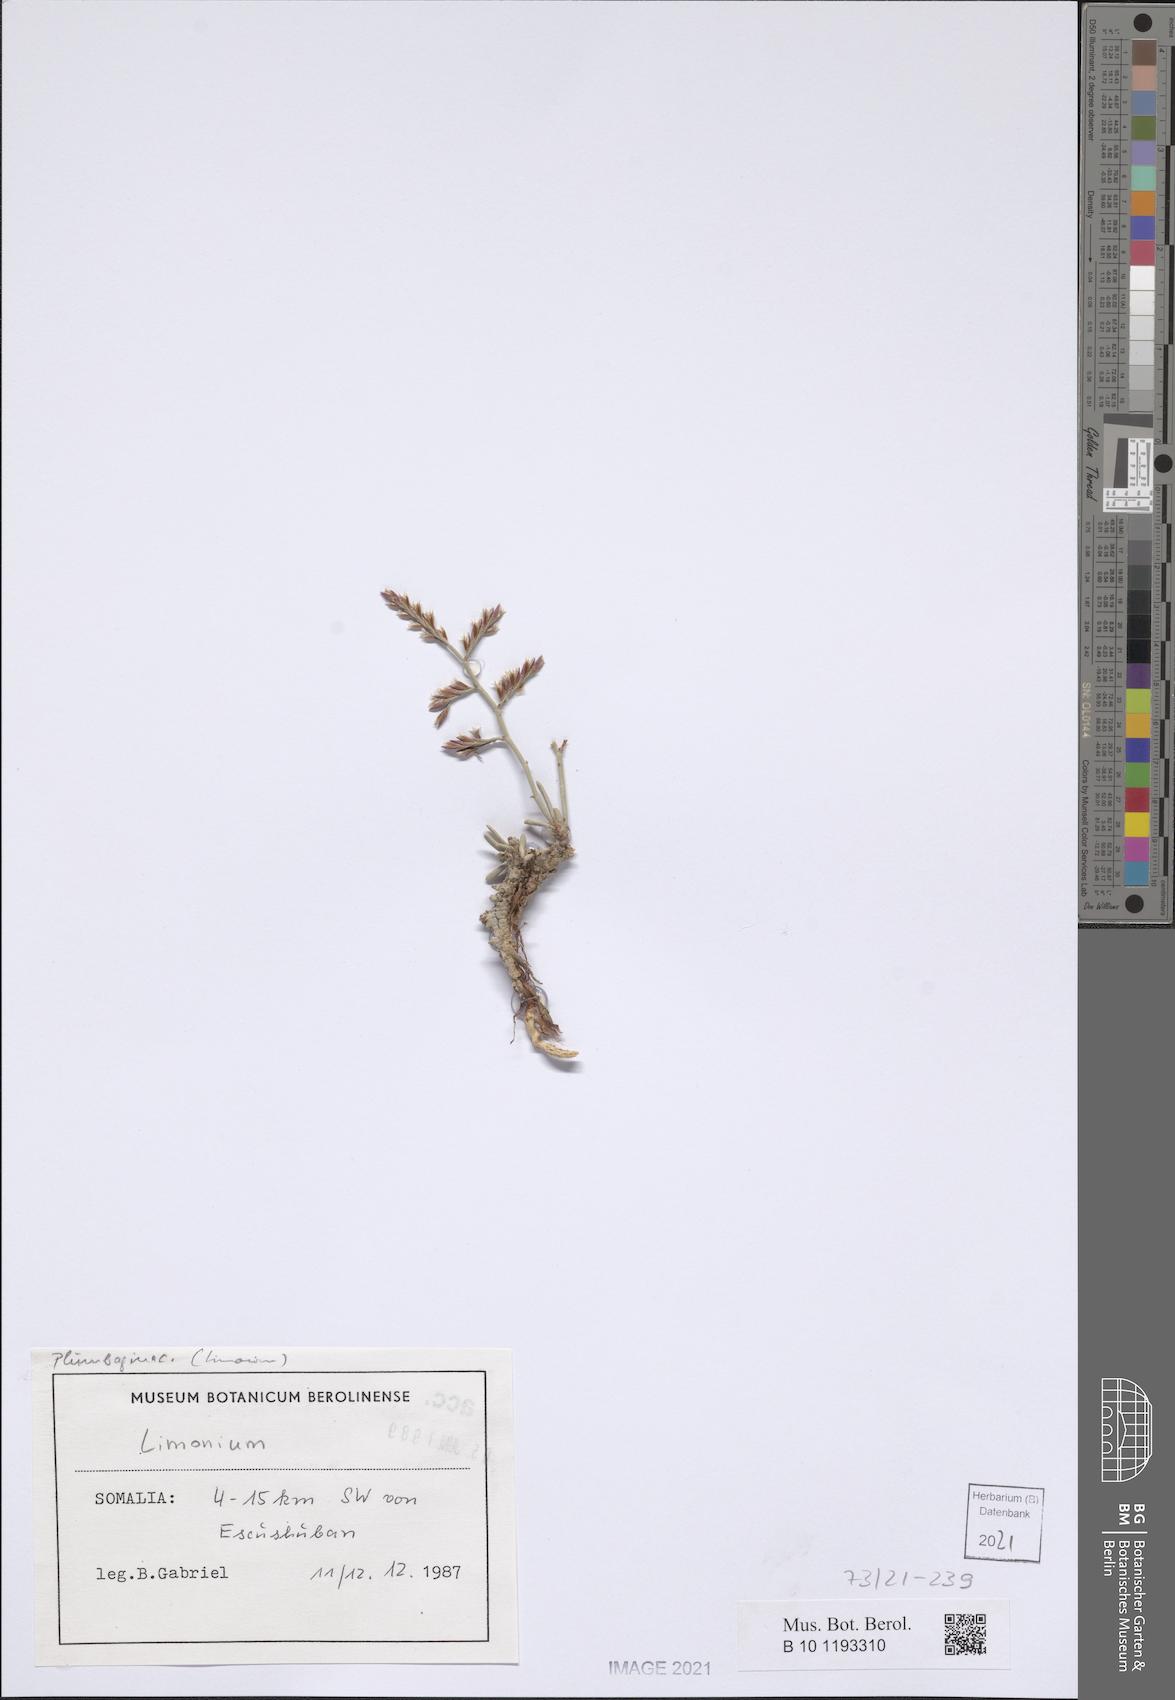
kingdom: Plantae
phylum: Tracheophyta
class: Magnoliopsida
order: Caryophyllales
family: Plumbaginaceae
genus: Limonium
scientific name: Limonium
